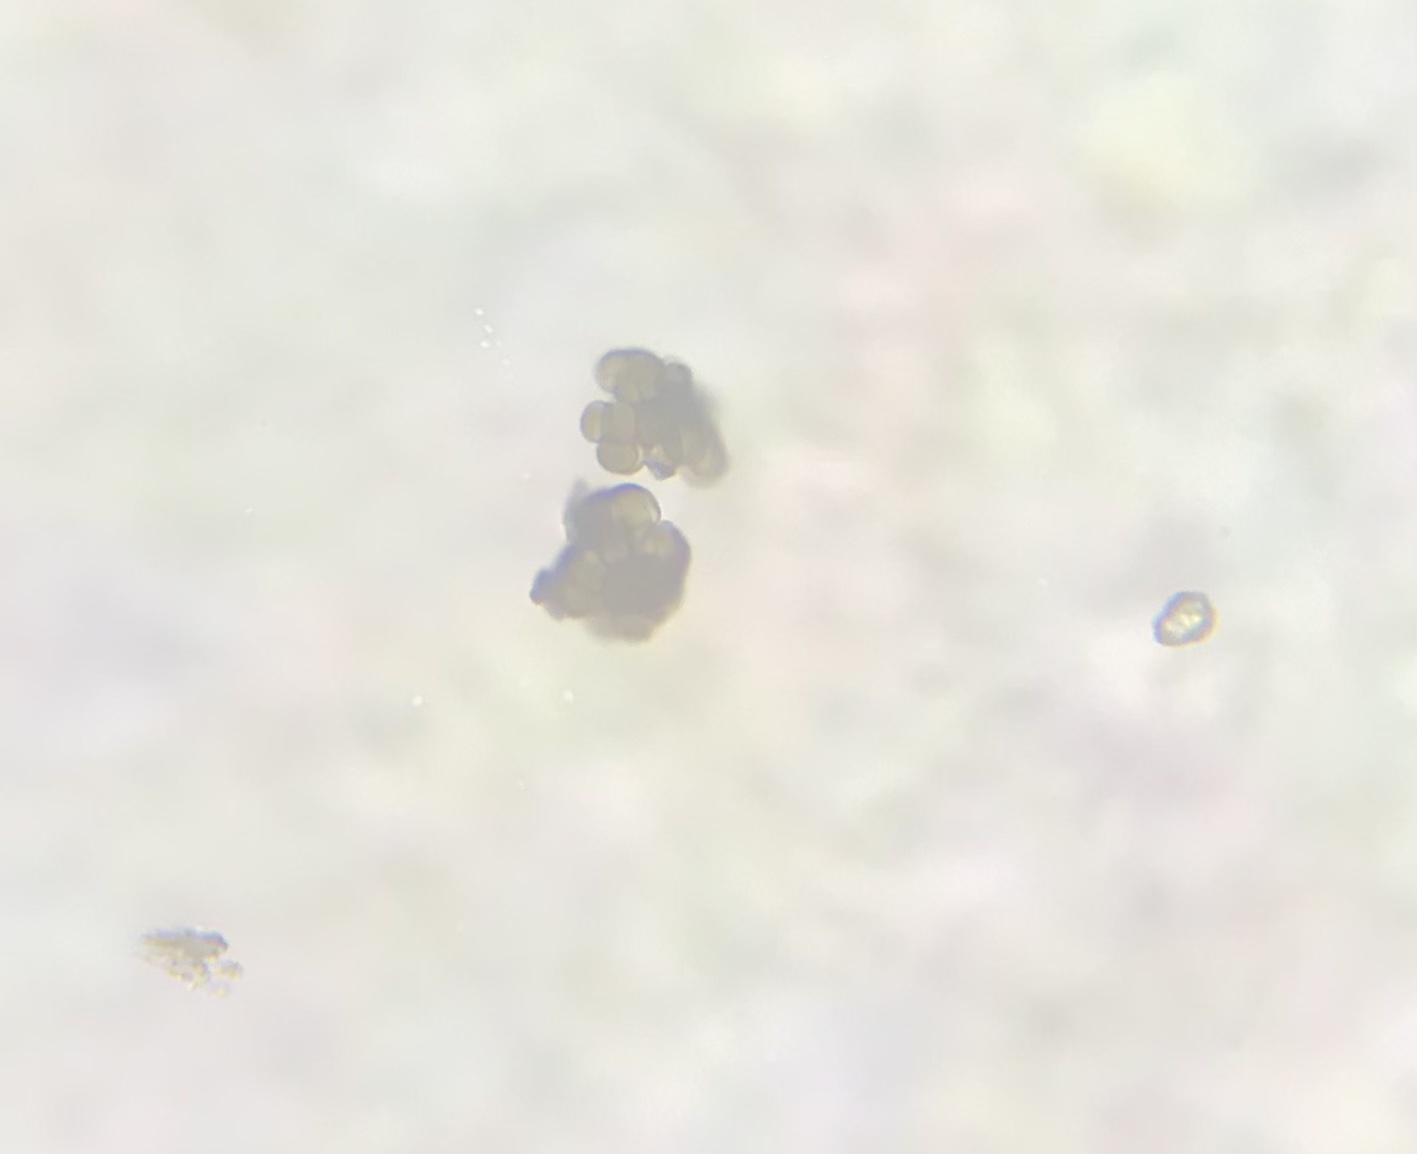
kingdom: Fungi
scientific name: Fungi
